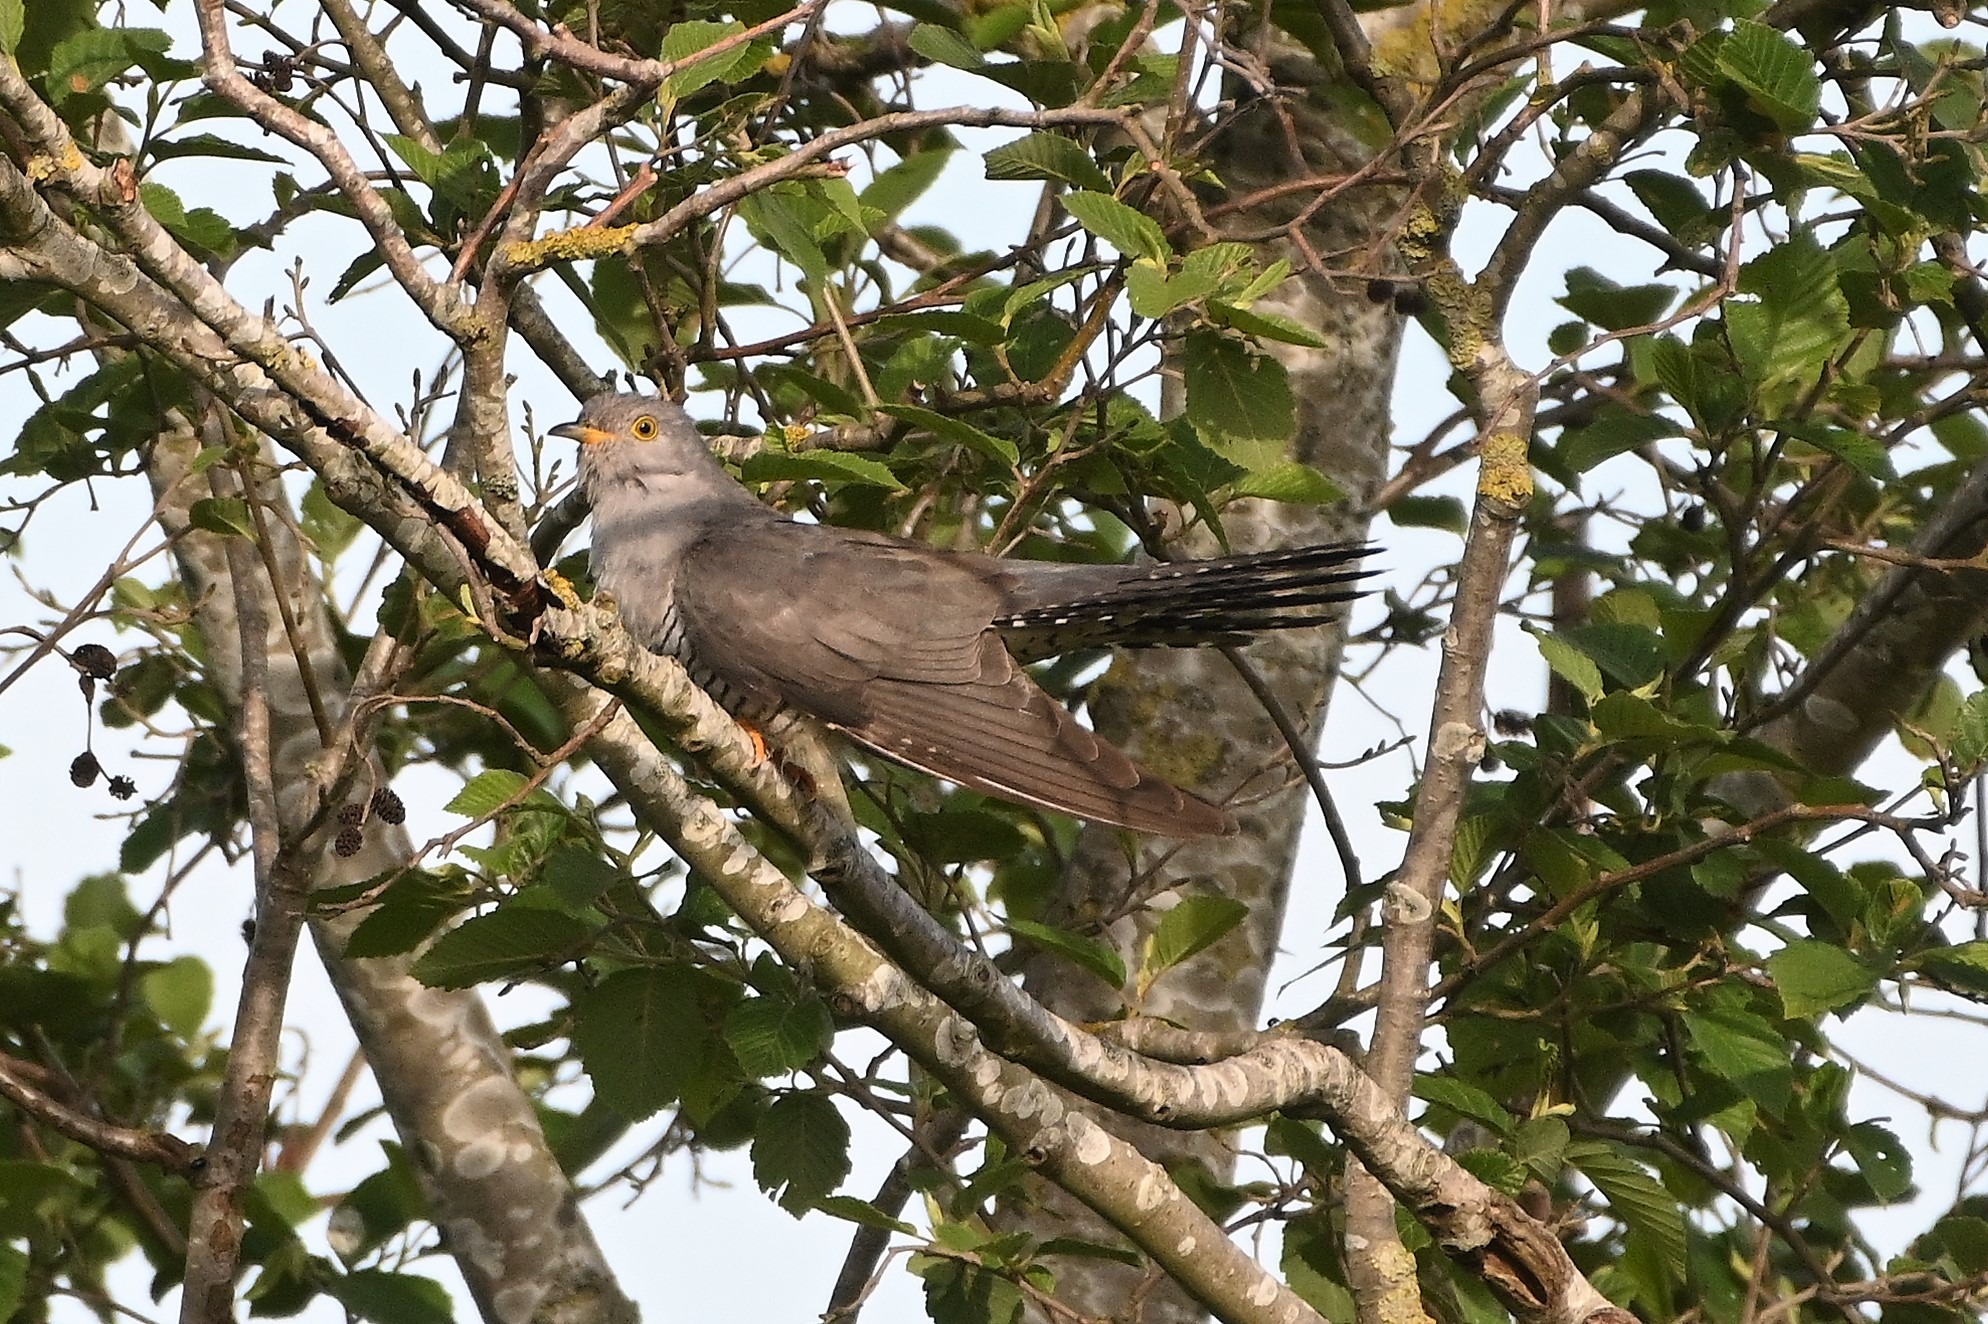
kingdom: Animalia
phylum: Chordata
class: Aves
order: Cuculiformes
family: Cuculidae
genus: Cuculus
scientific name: Cuculus canorus
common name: Gøg
